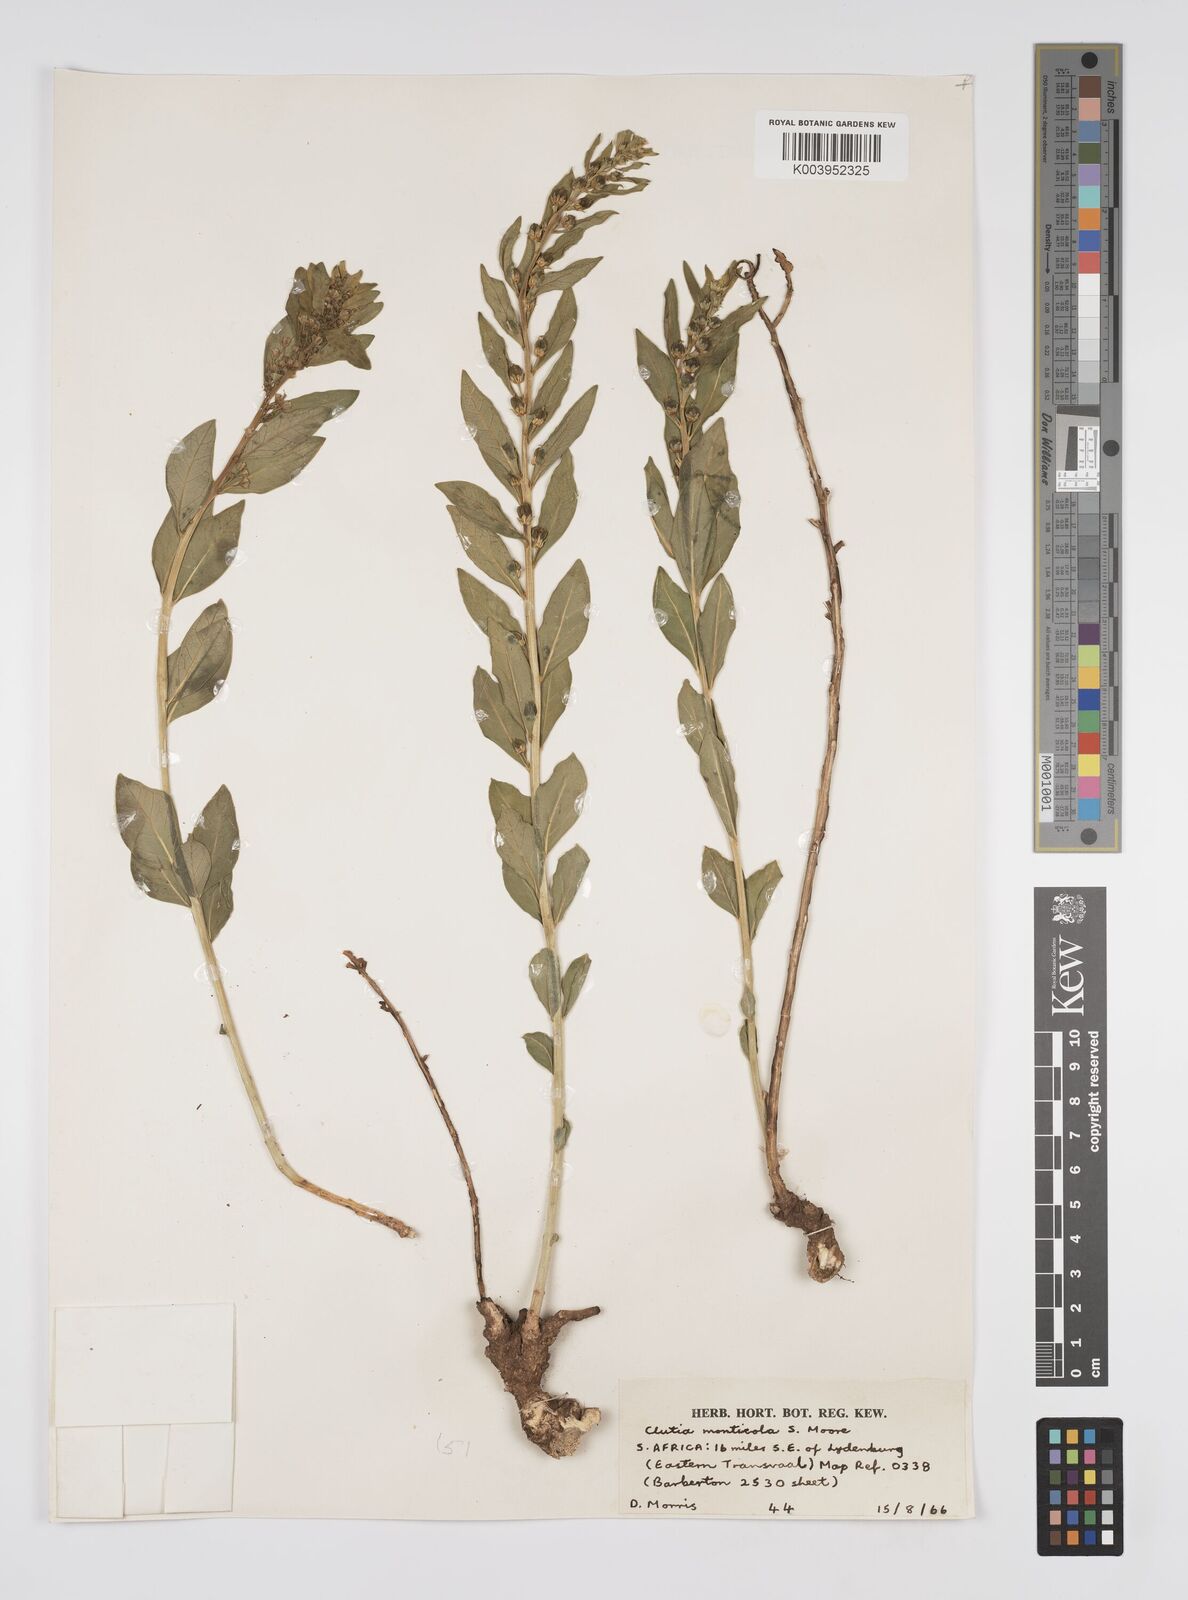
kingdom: Plantae
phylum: Tracheophyta
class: Magnoliopsida
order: Malpighiales
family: Peraceae
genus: Clutia
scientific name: Clutia
